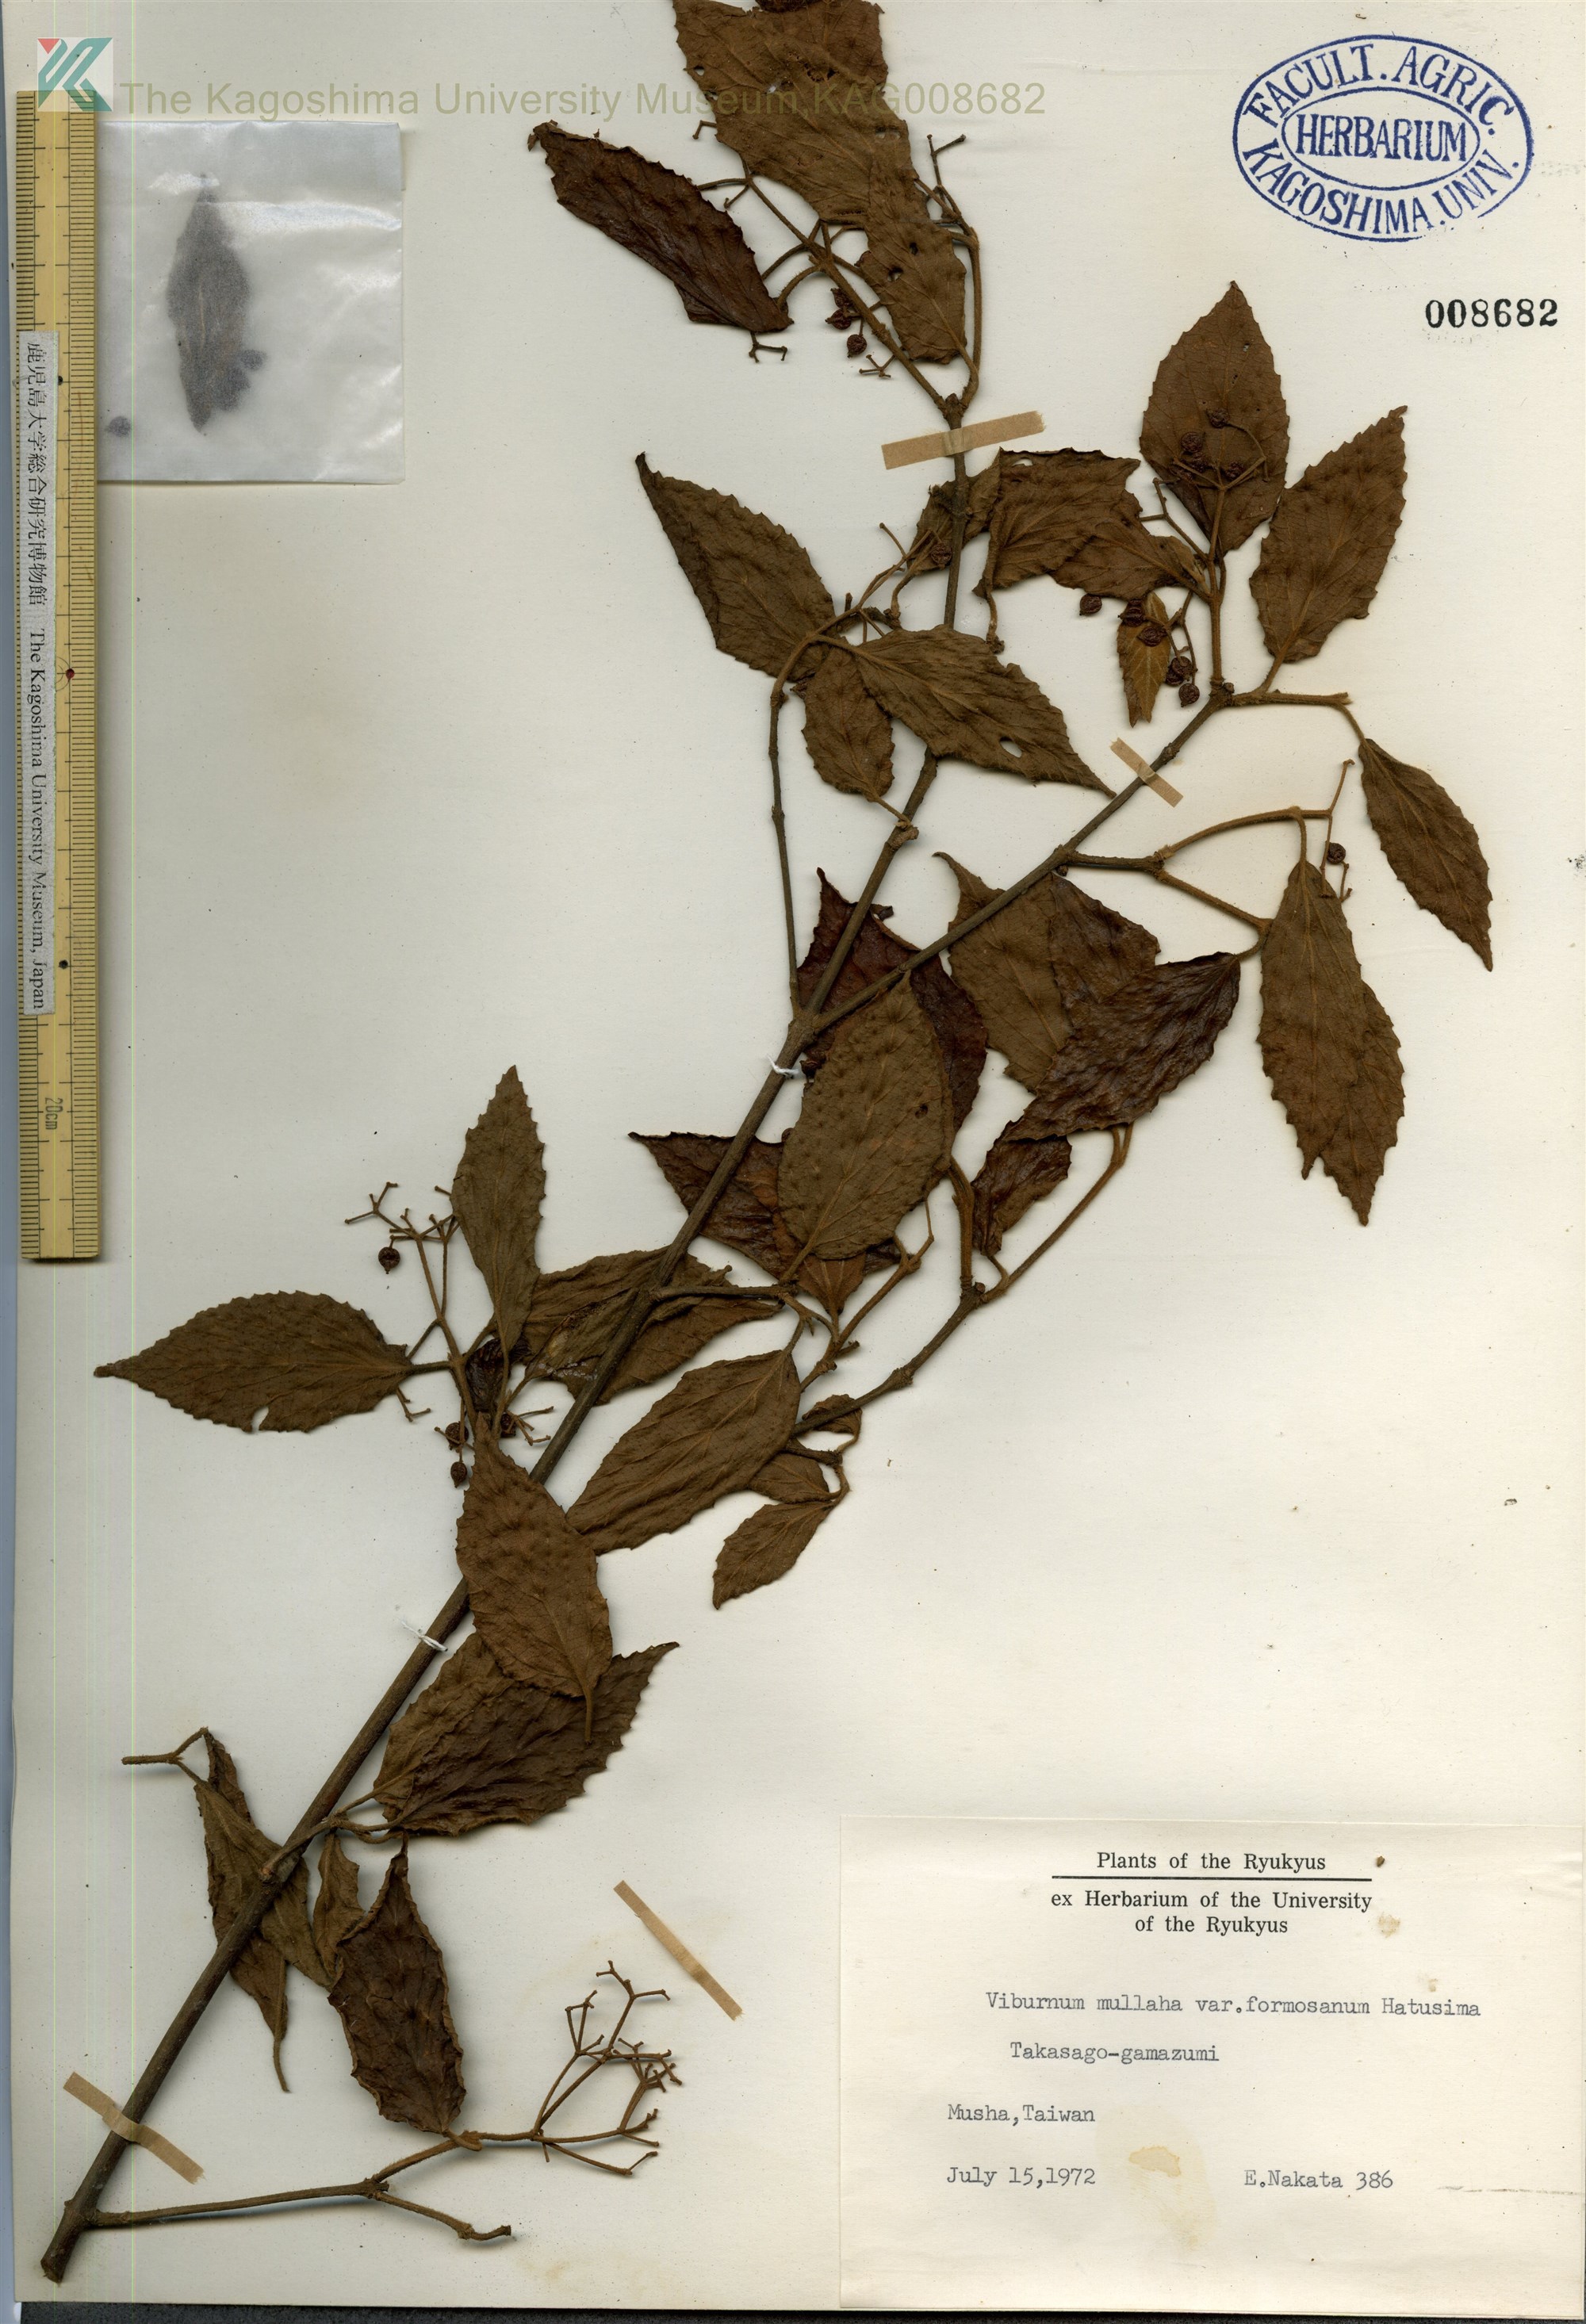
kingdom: Plantae
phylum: Tracheophyta
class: Magnoliopsida
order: Dipsacales
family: Viburnaceae
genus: Viburnum
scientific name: Viburnum mullaha
